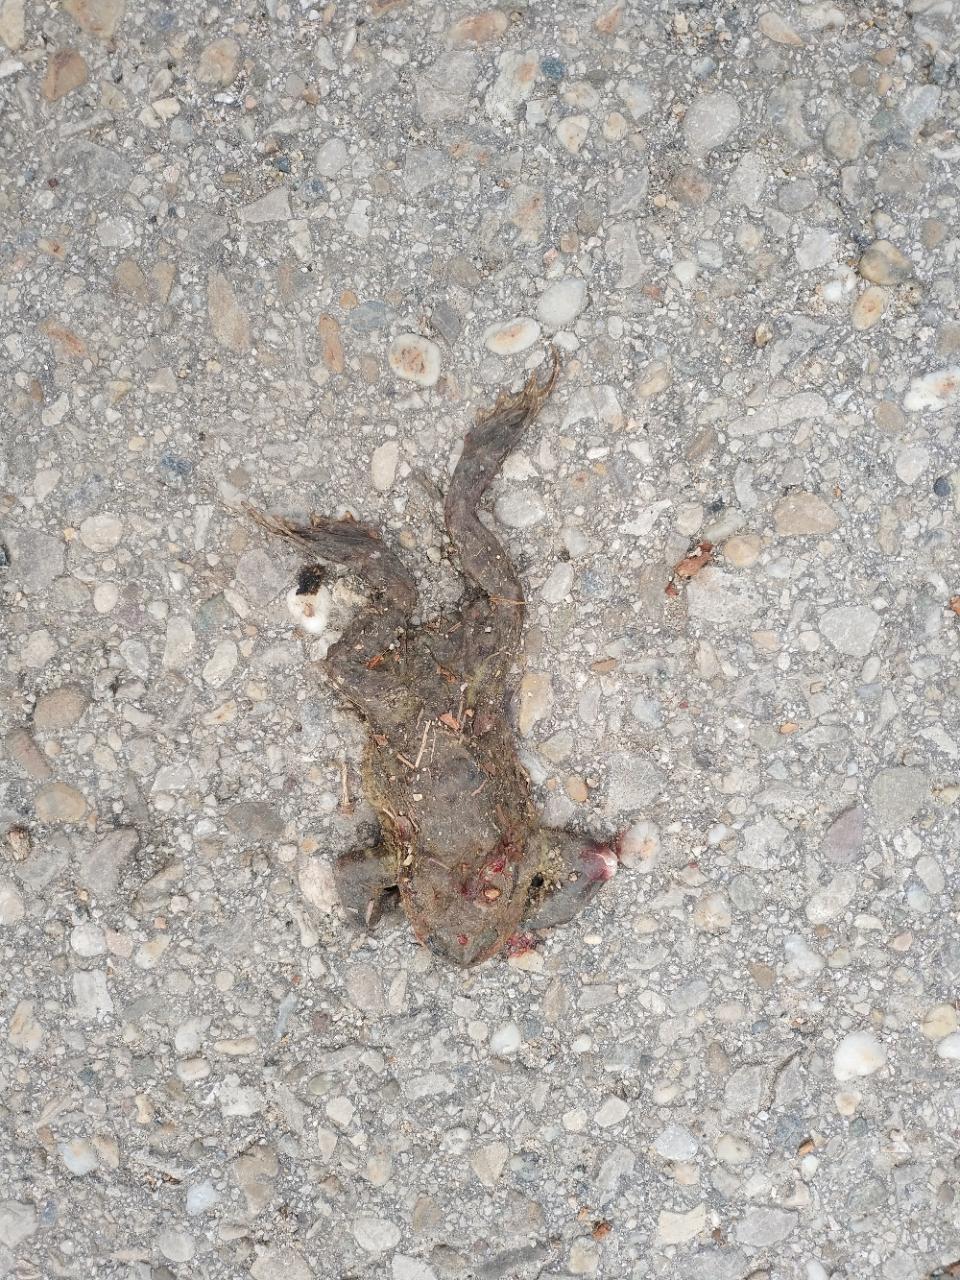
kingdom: Animalia
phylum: Chordata
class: Amphibia
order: Anura
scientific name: Anura
